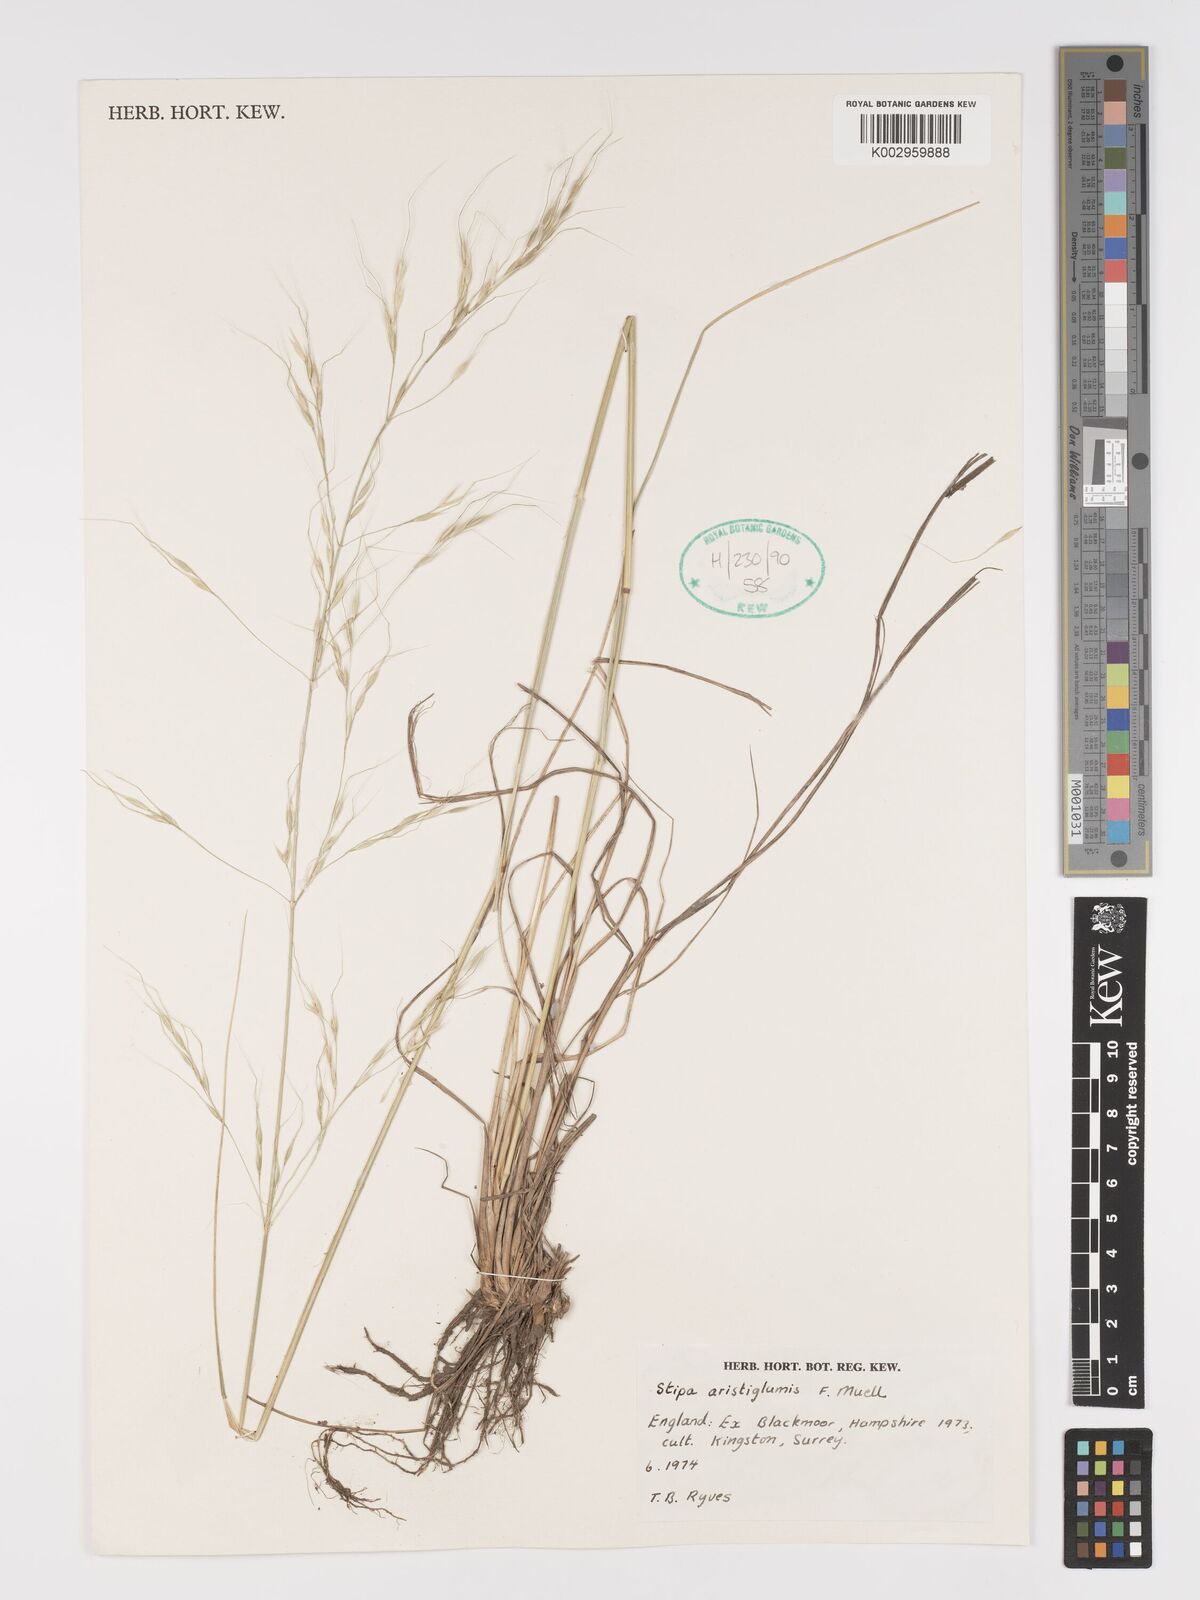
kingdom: Plantae
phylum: Tracheophyta
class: Liliopsida
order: Poales
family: Poaceae
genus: Austrostipa
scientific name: Austrostipa aristiglumis
